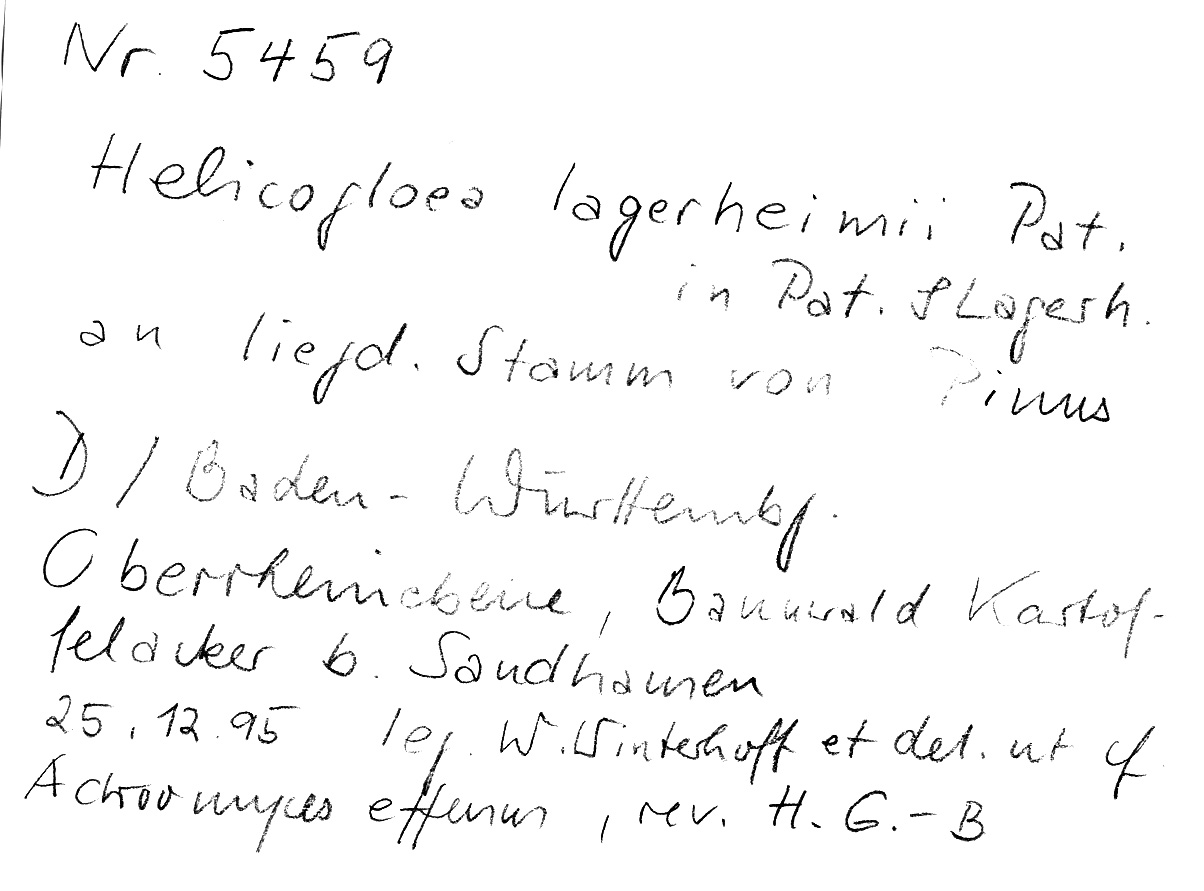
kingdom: Plantae
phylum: Tracheophyta
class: Pinopsida
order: Pinales
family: Pinaceae
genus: Pinus
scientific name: Pinus
